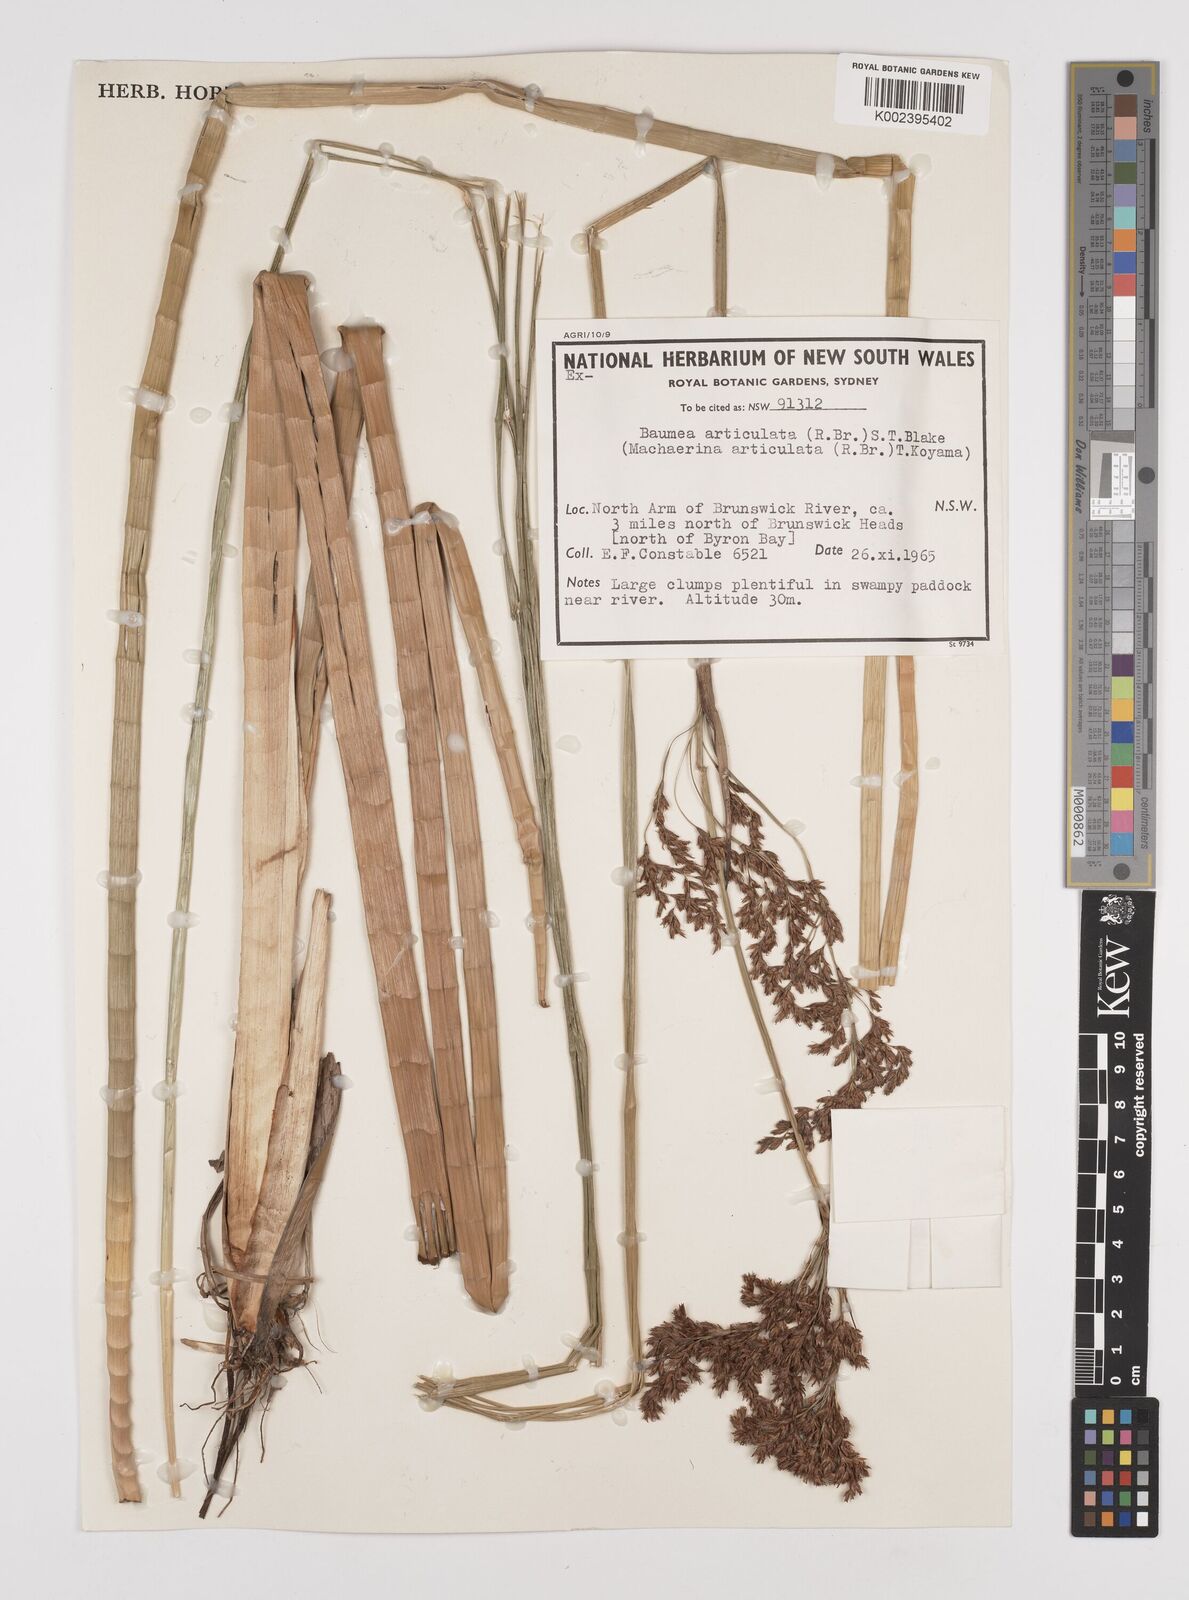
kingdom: Plantae
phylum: Tracheophyta
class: Liliopsida
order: Poales
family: Cyperaceae
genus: Machaerina
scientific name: Machaerina articulata
